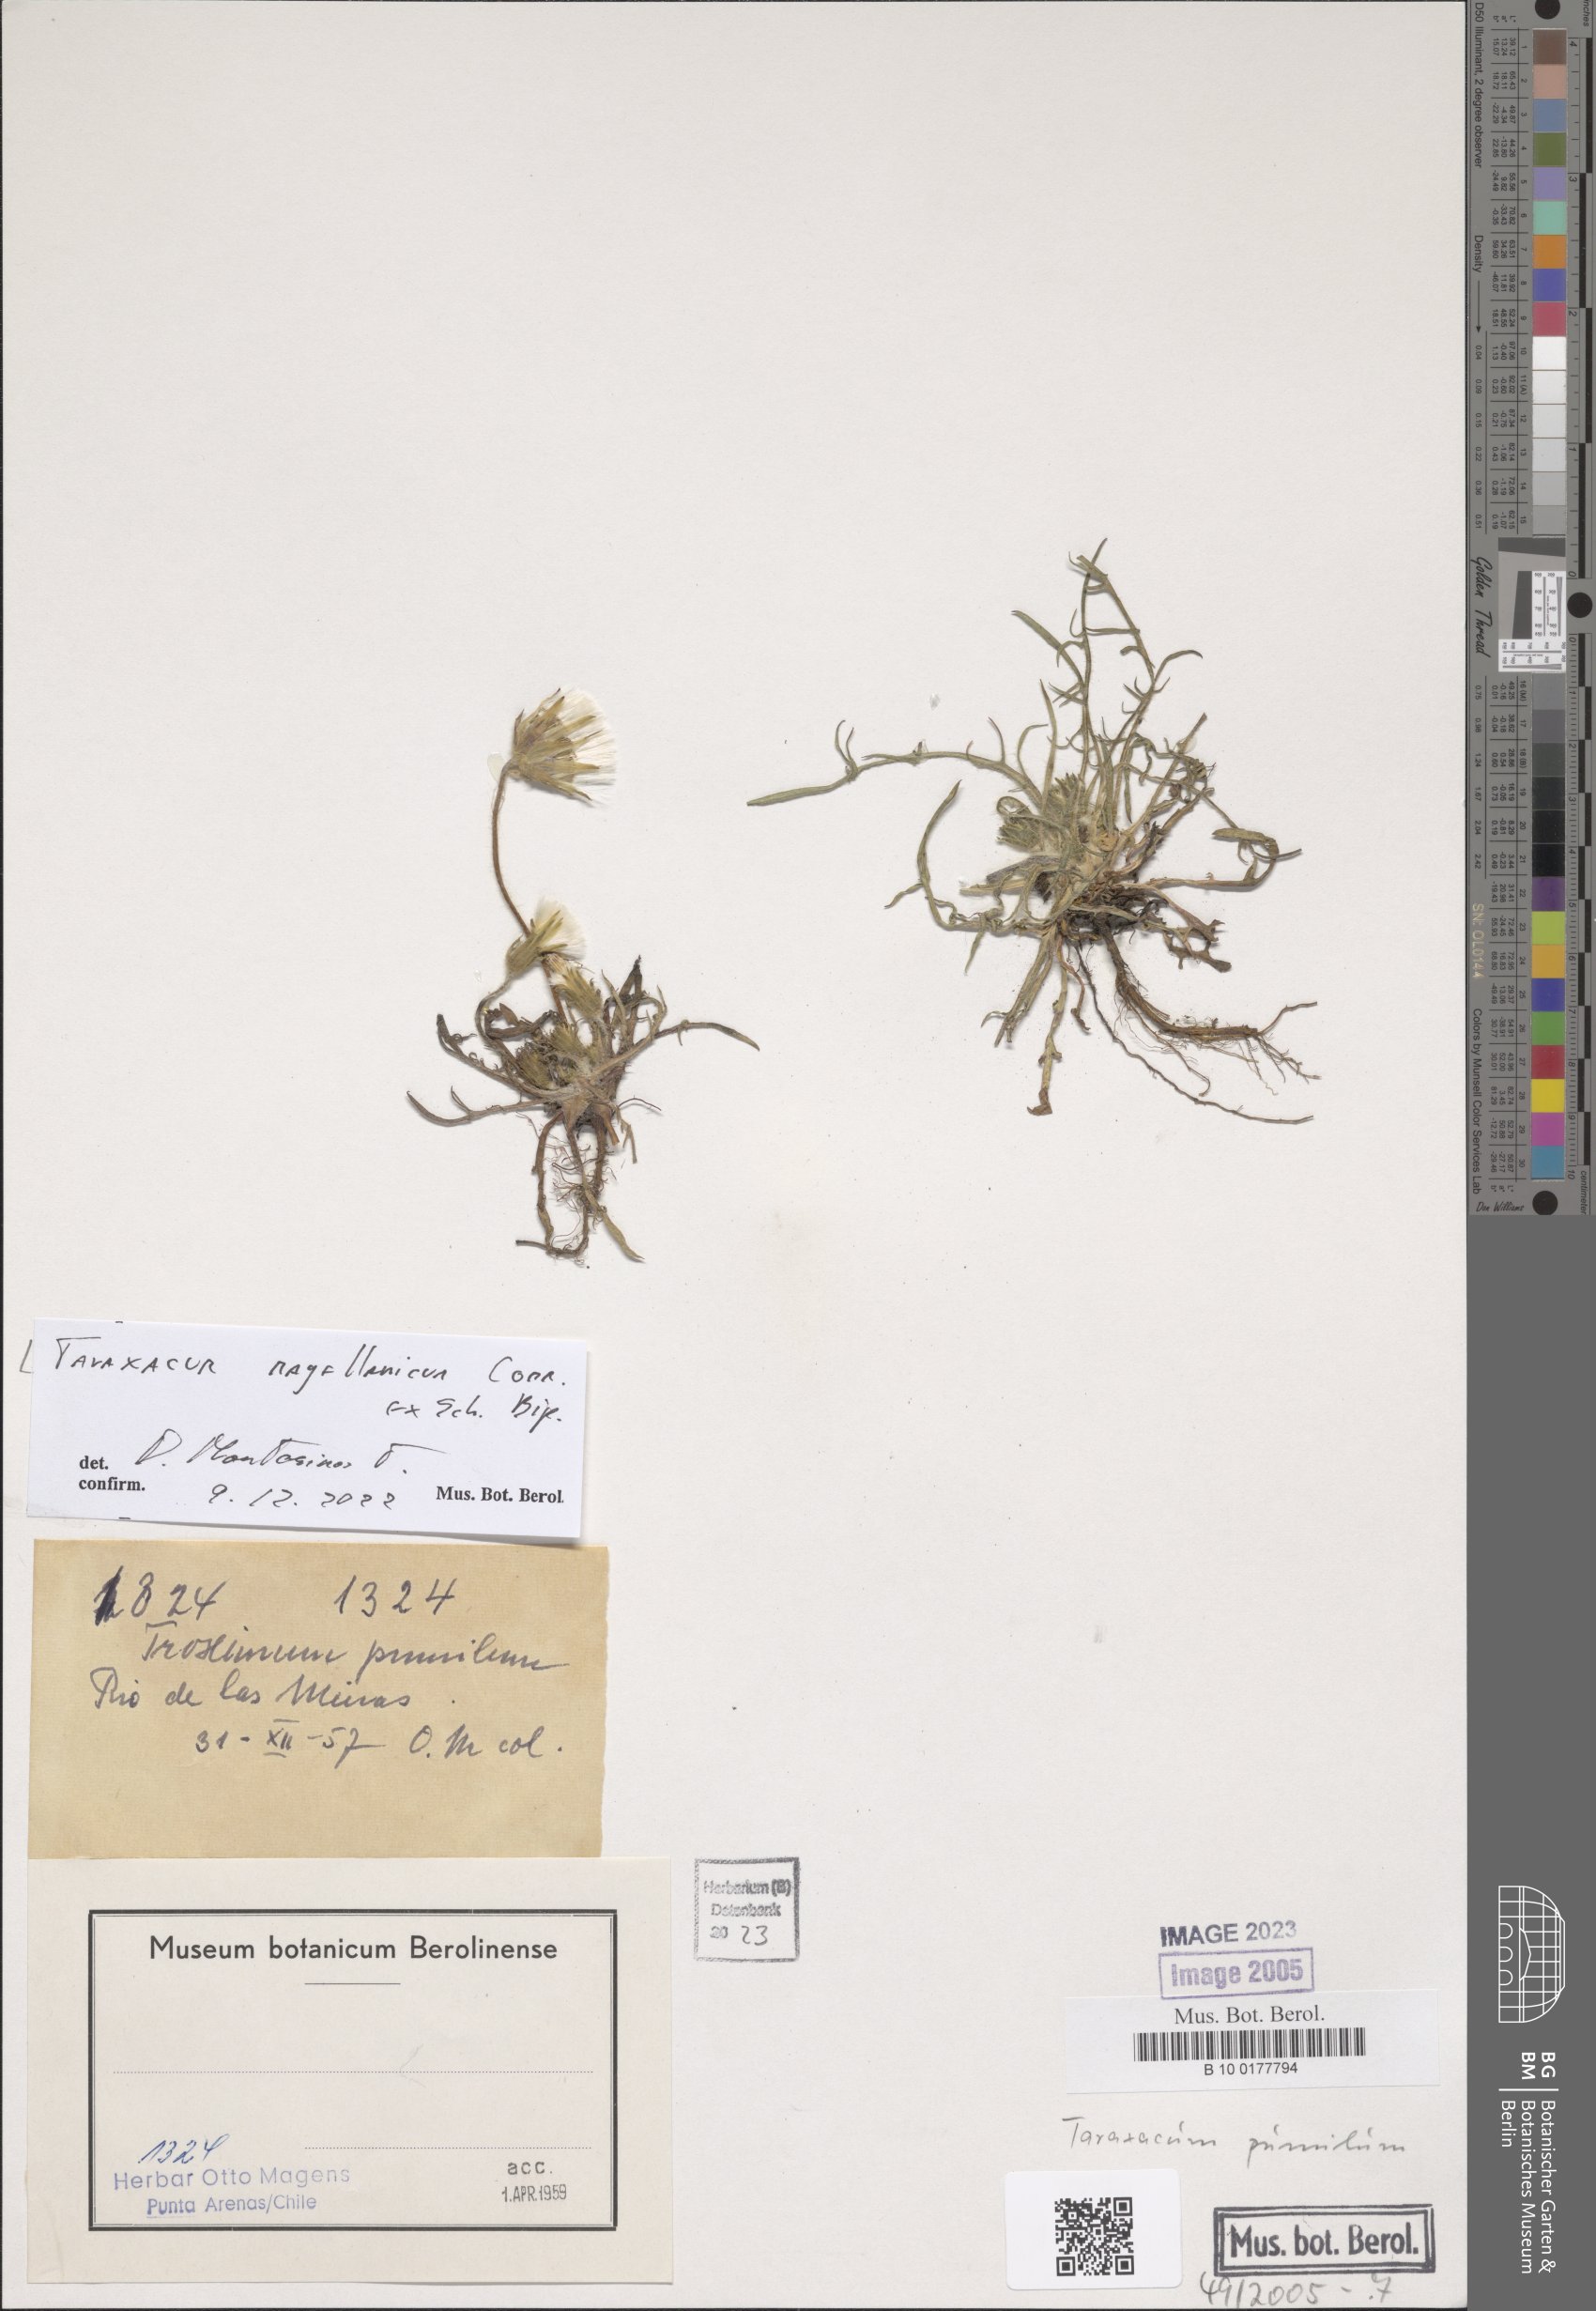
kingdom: Plantae
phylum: Tracheophyta
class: Magnoliopsida
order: Asterales
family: Asteraceae
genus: Taraxacum
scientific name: Taraxacum gilliesii
